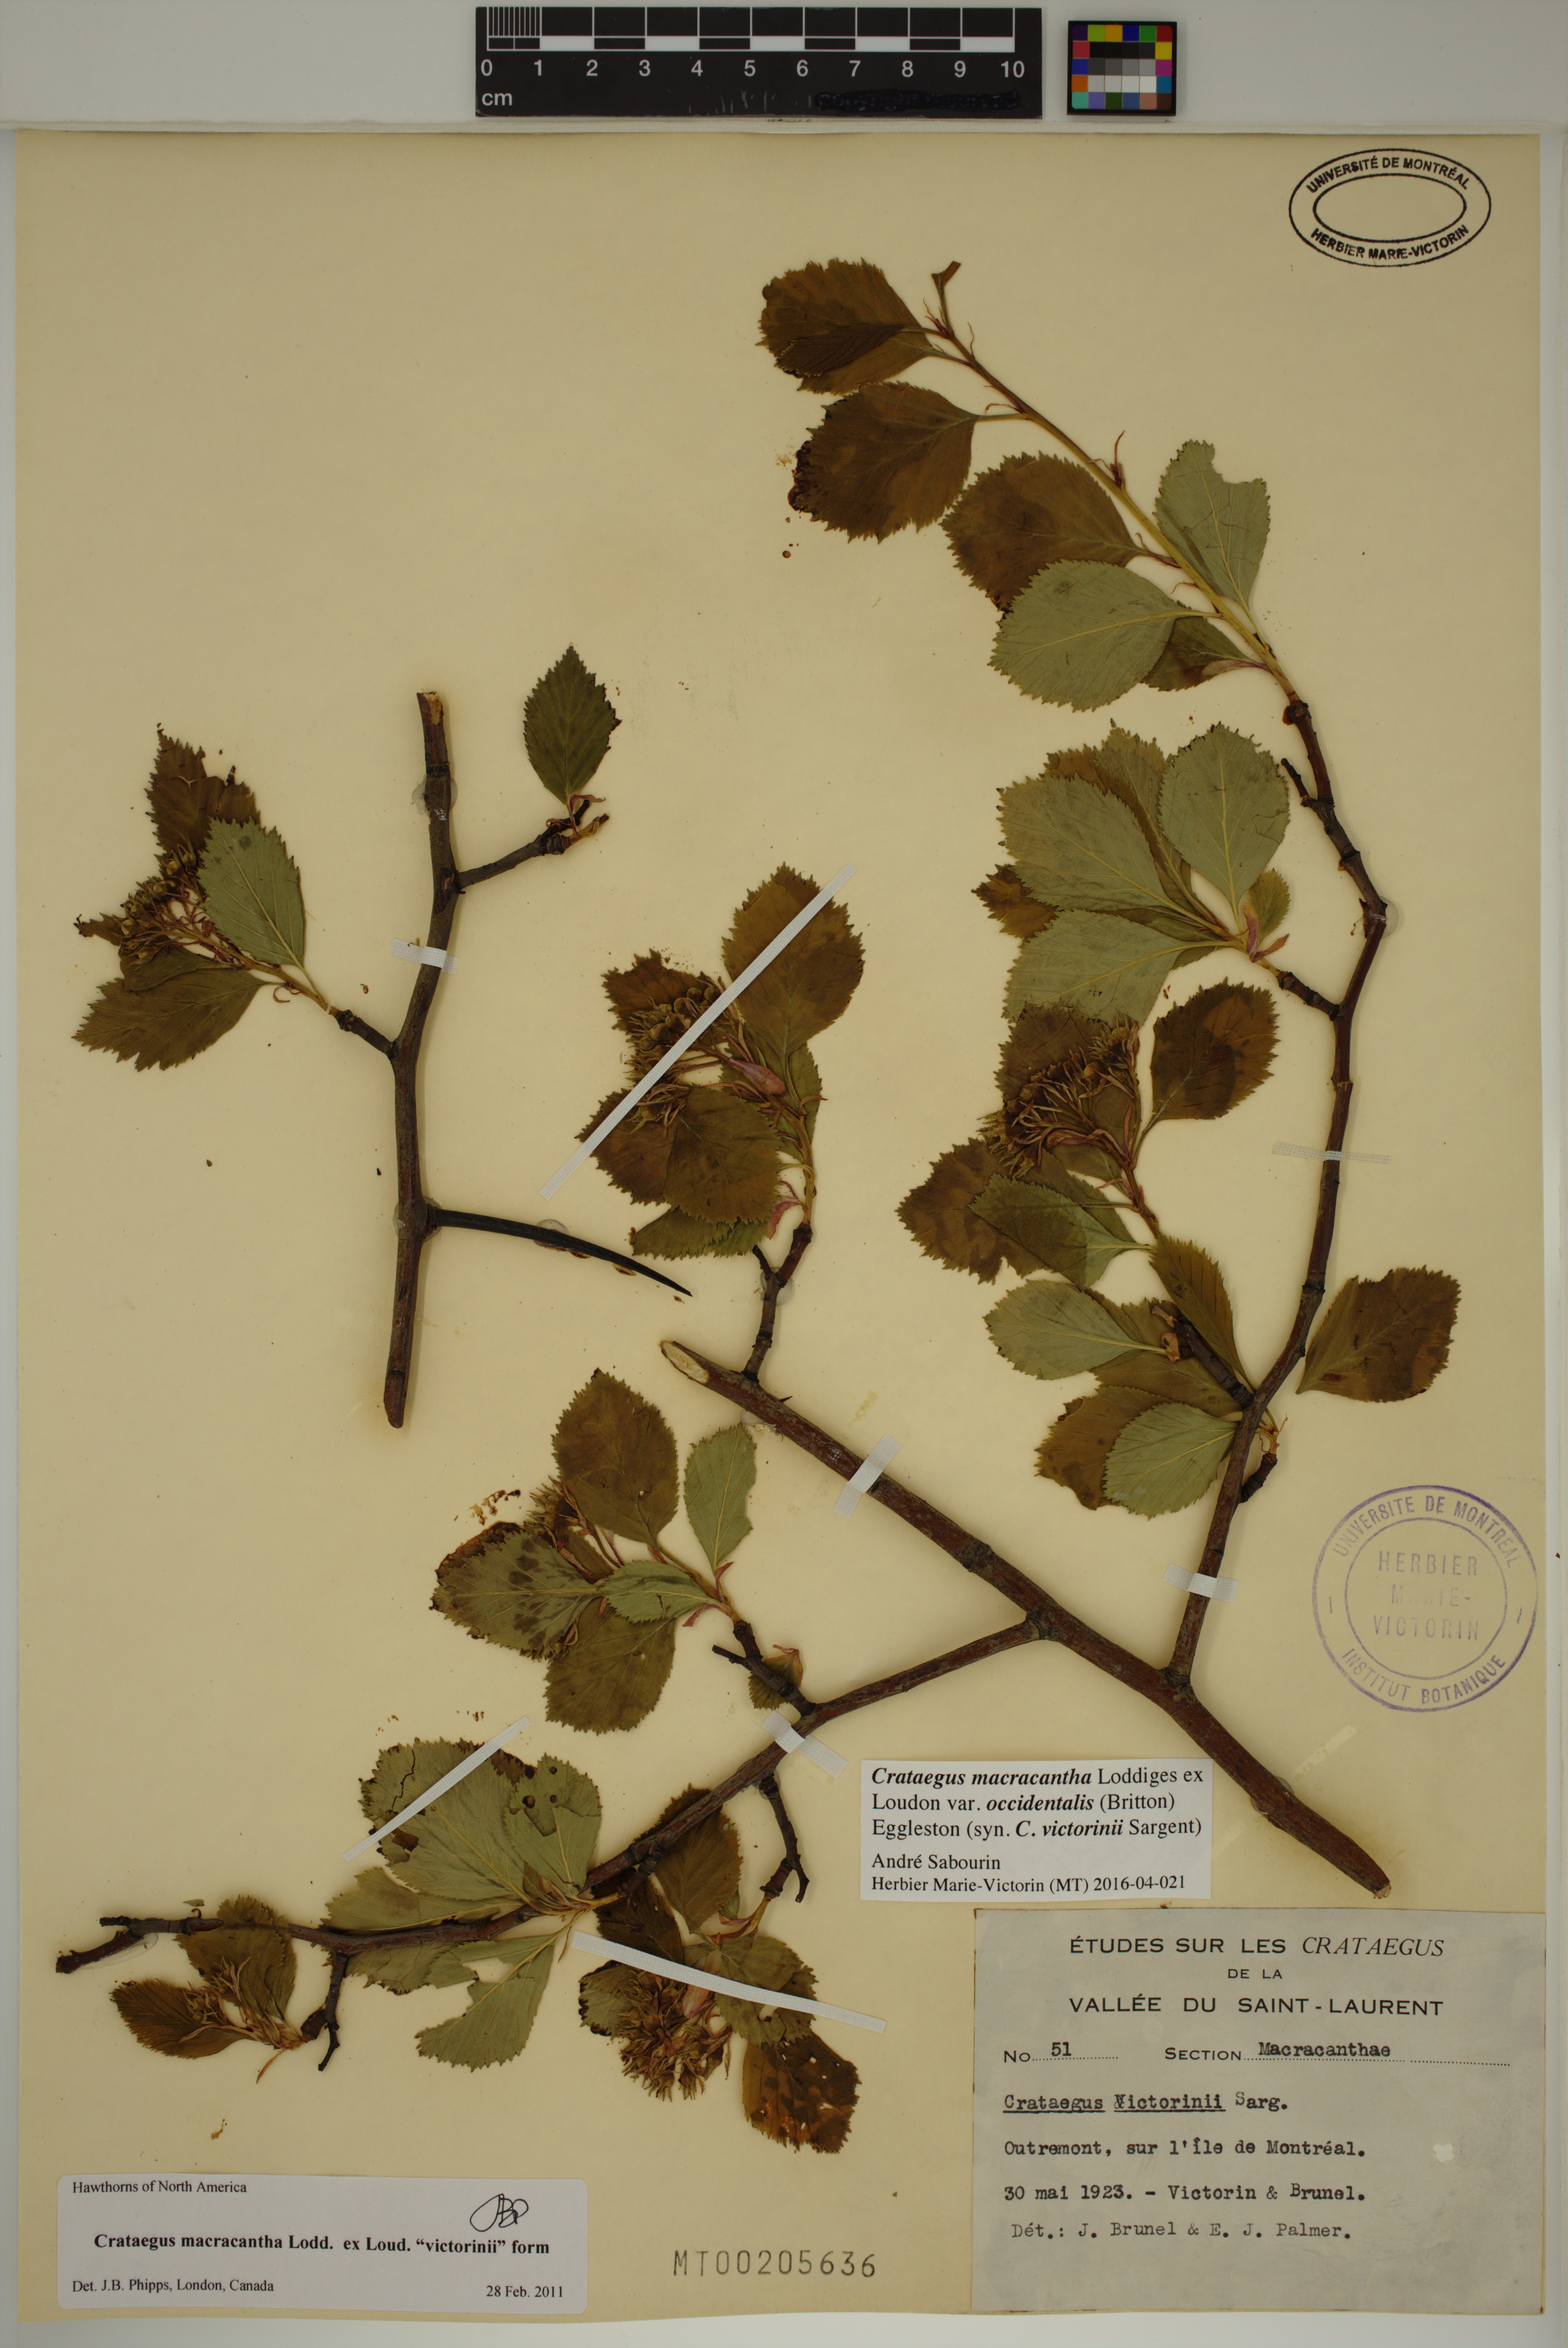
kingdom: Plantae
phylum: Tracheophyta
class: Magnoliopsida
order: Rosales
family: Rosaceae
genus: Crataegus
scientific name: Crataegus macracantha
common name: Large-thorn hawthorn
